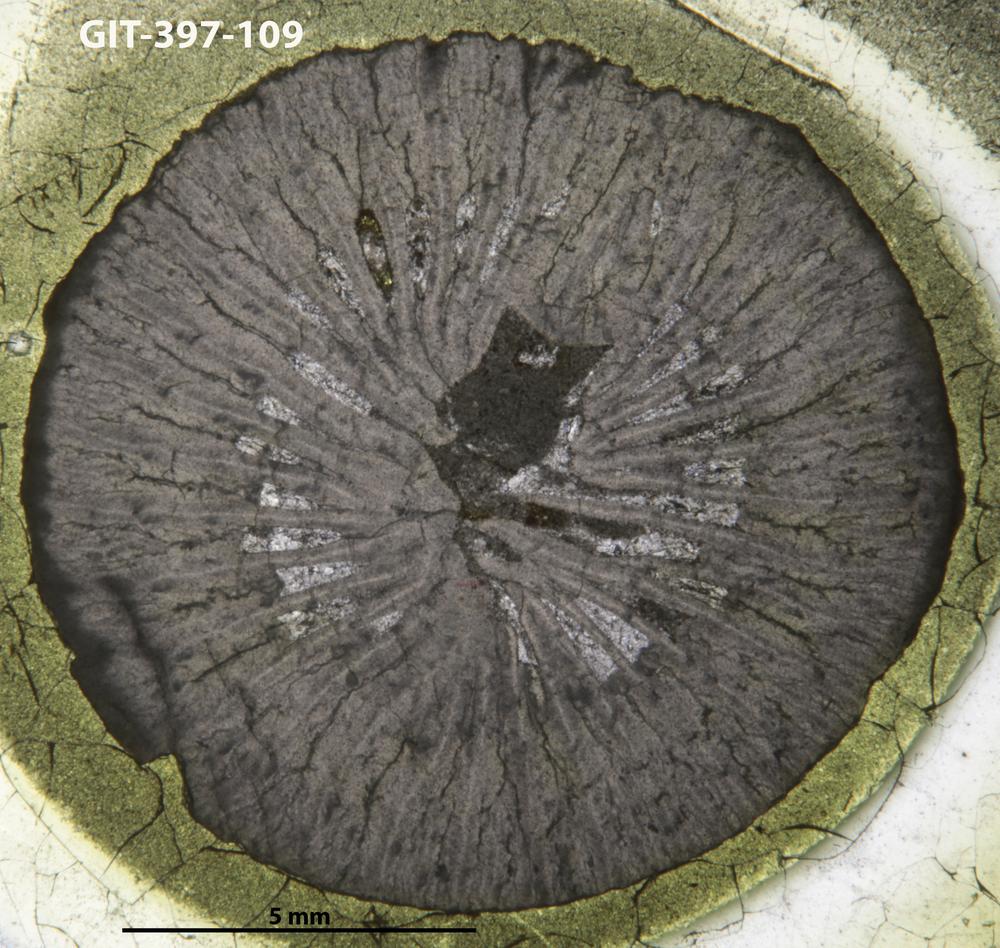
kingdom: Animalia
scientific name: Animalia
